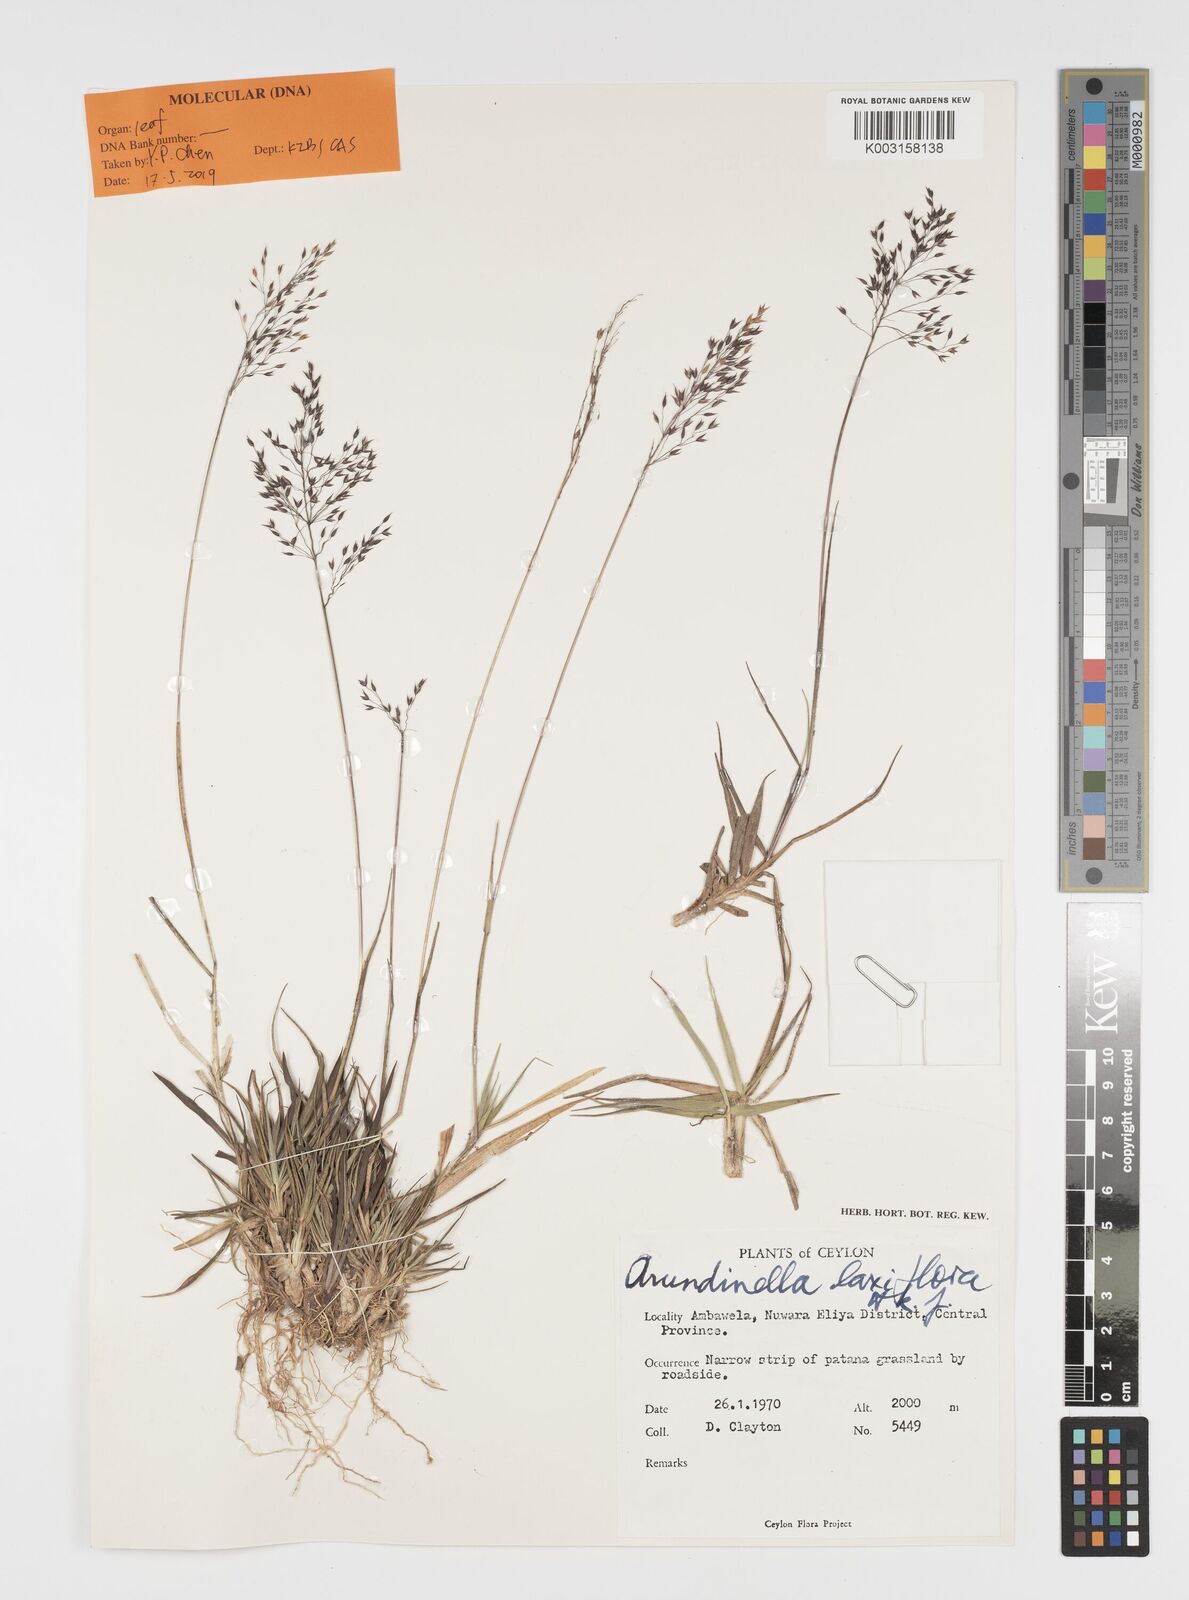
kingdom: Plantae
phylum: Tracheophyta
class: Liliopsida
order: Poales
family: Poaceae
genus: Arundinella
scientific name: Arundinella laxiflora
